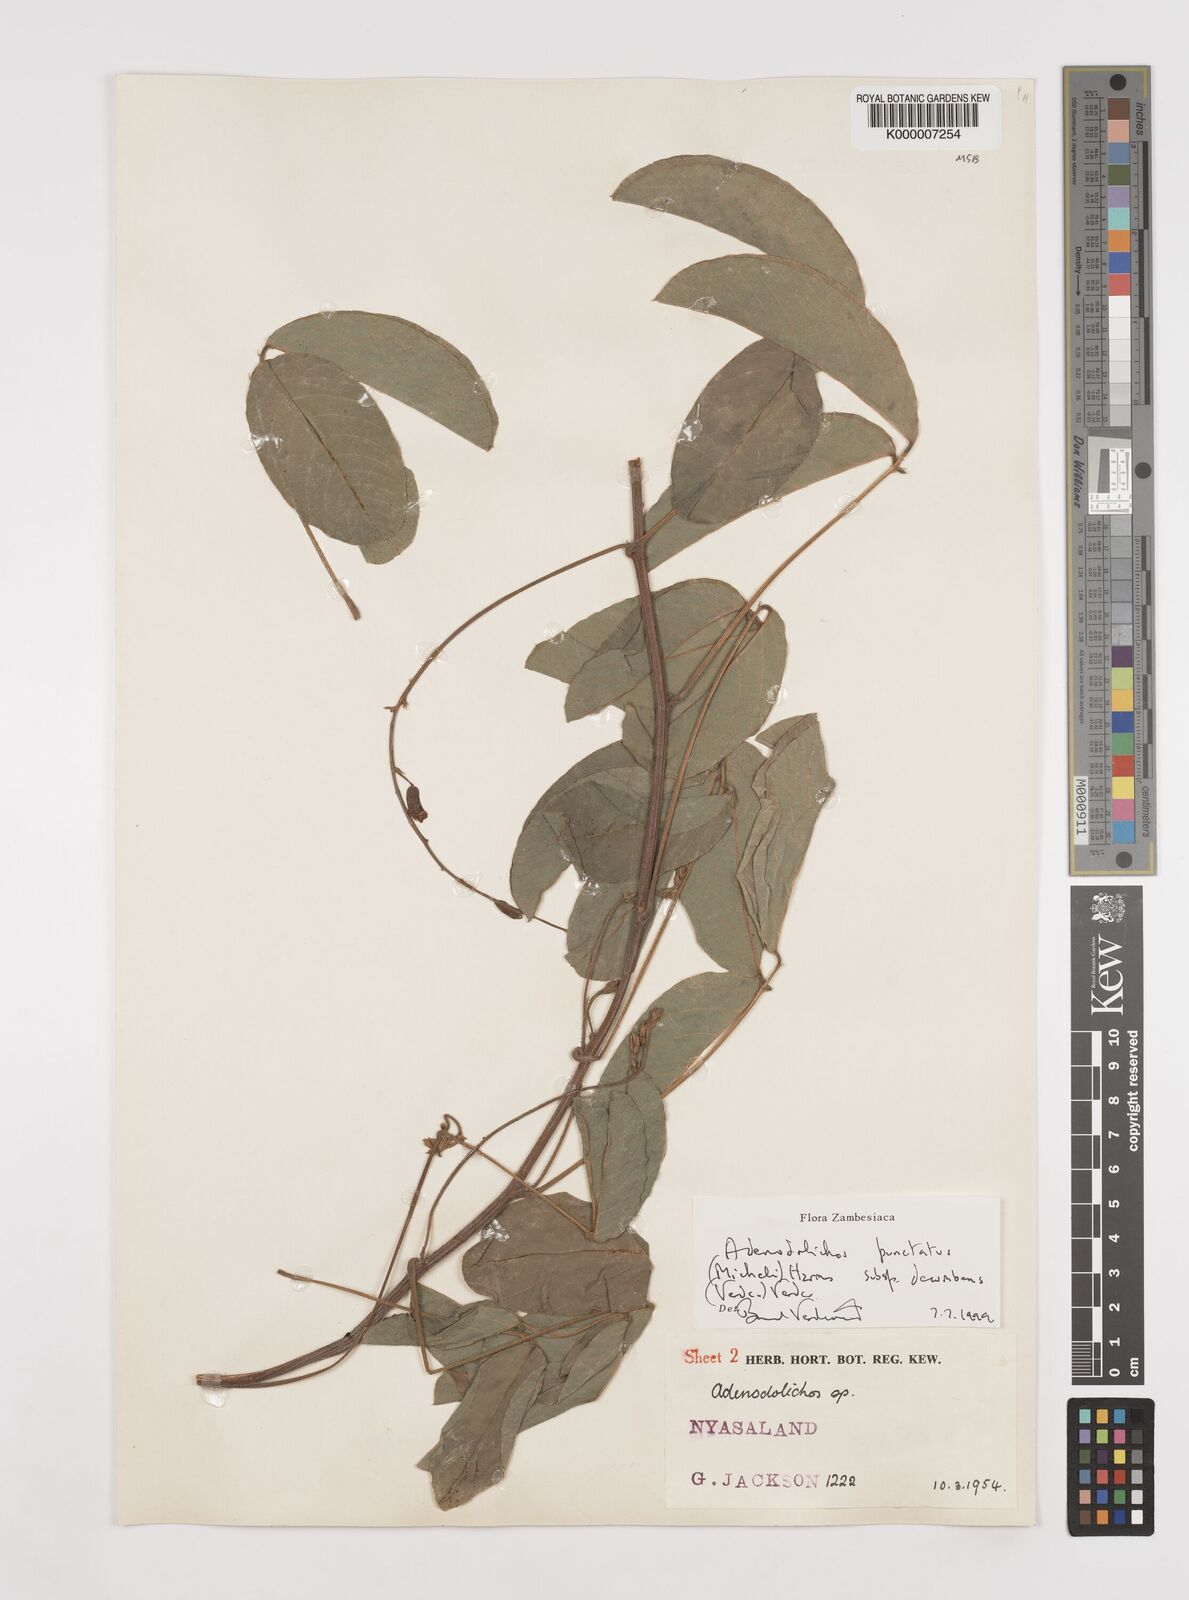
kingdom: Plantae
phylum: Tracheophyta
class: Magnoliopsida
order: Fabales
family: Fabaceae
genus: Adenodolichos
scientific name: Adenodolichos punctatus
